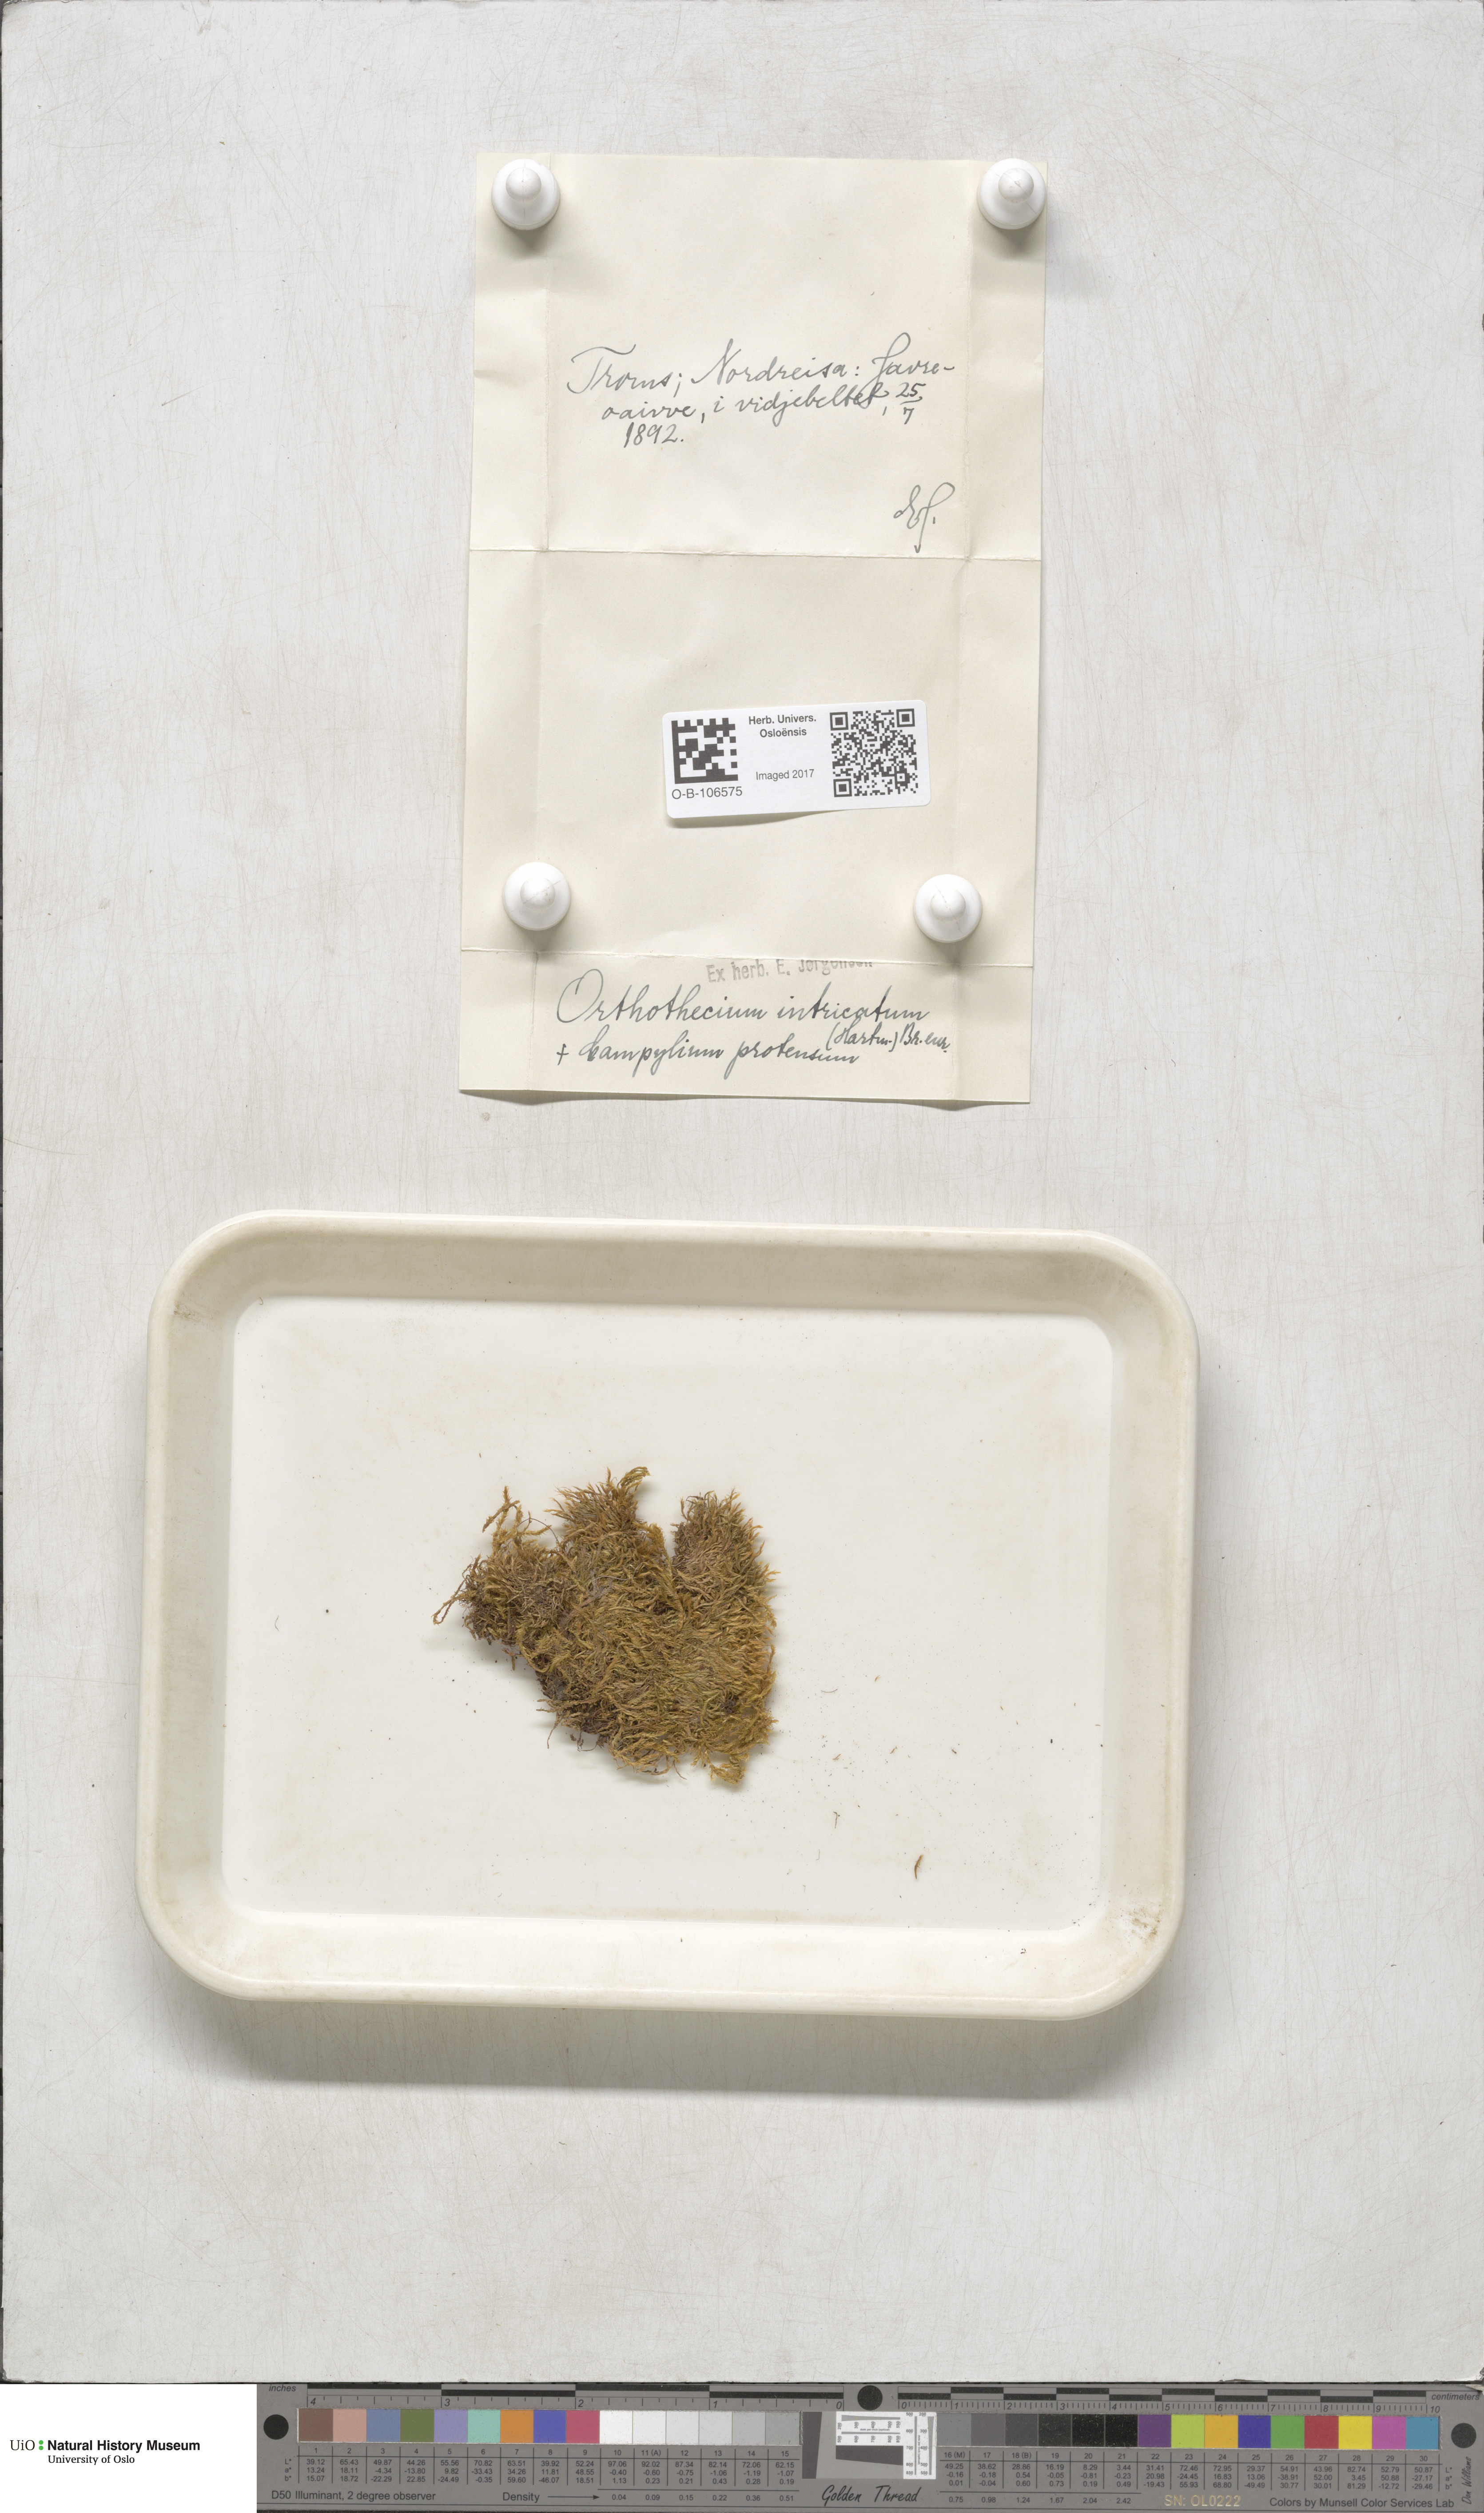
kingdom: Plantae
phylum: Bryophyta
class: Bryopsida
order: Hypnales
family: Plagiotheciaceae
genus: Orthothecium
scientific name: Orthothecium intricatum
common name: Fine-leaved erect-capsule moss
